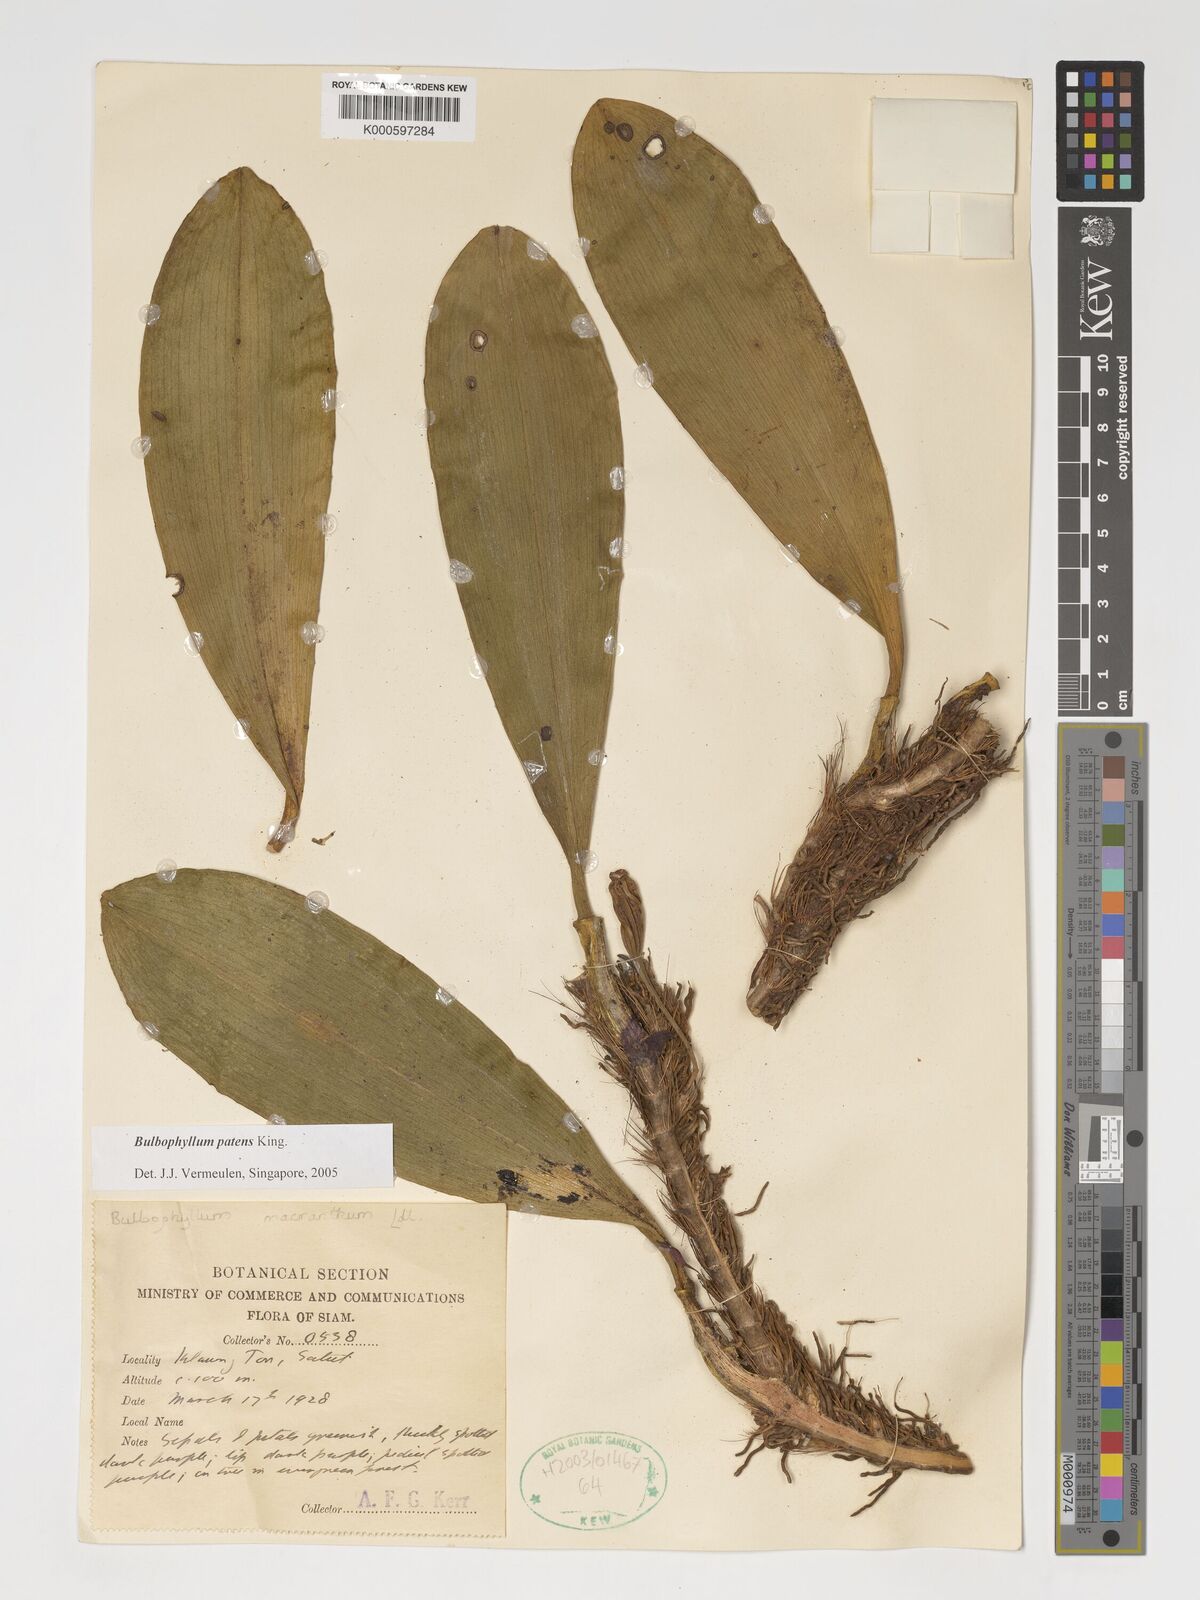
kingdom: Plantae
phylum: Tracheophyta
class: Liliopsida
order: Asparagales
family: Orchidaceae
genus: Bulbophyllum
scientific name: Bulbophyllum
